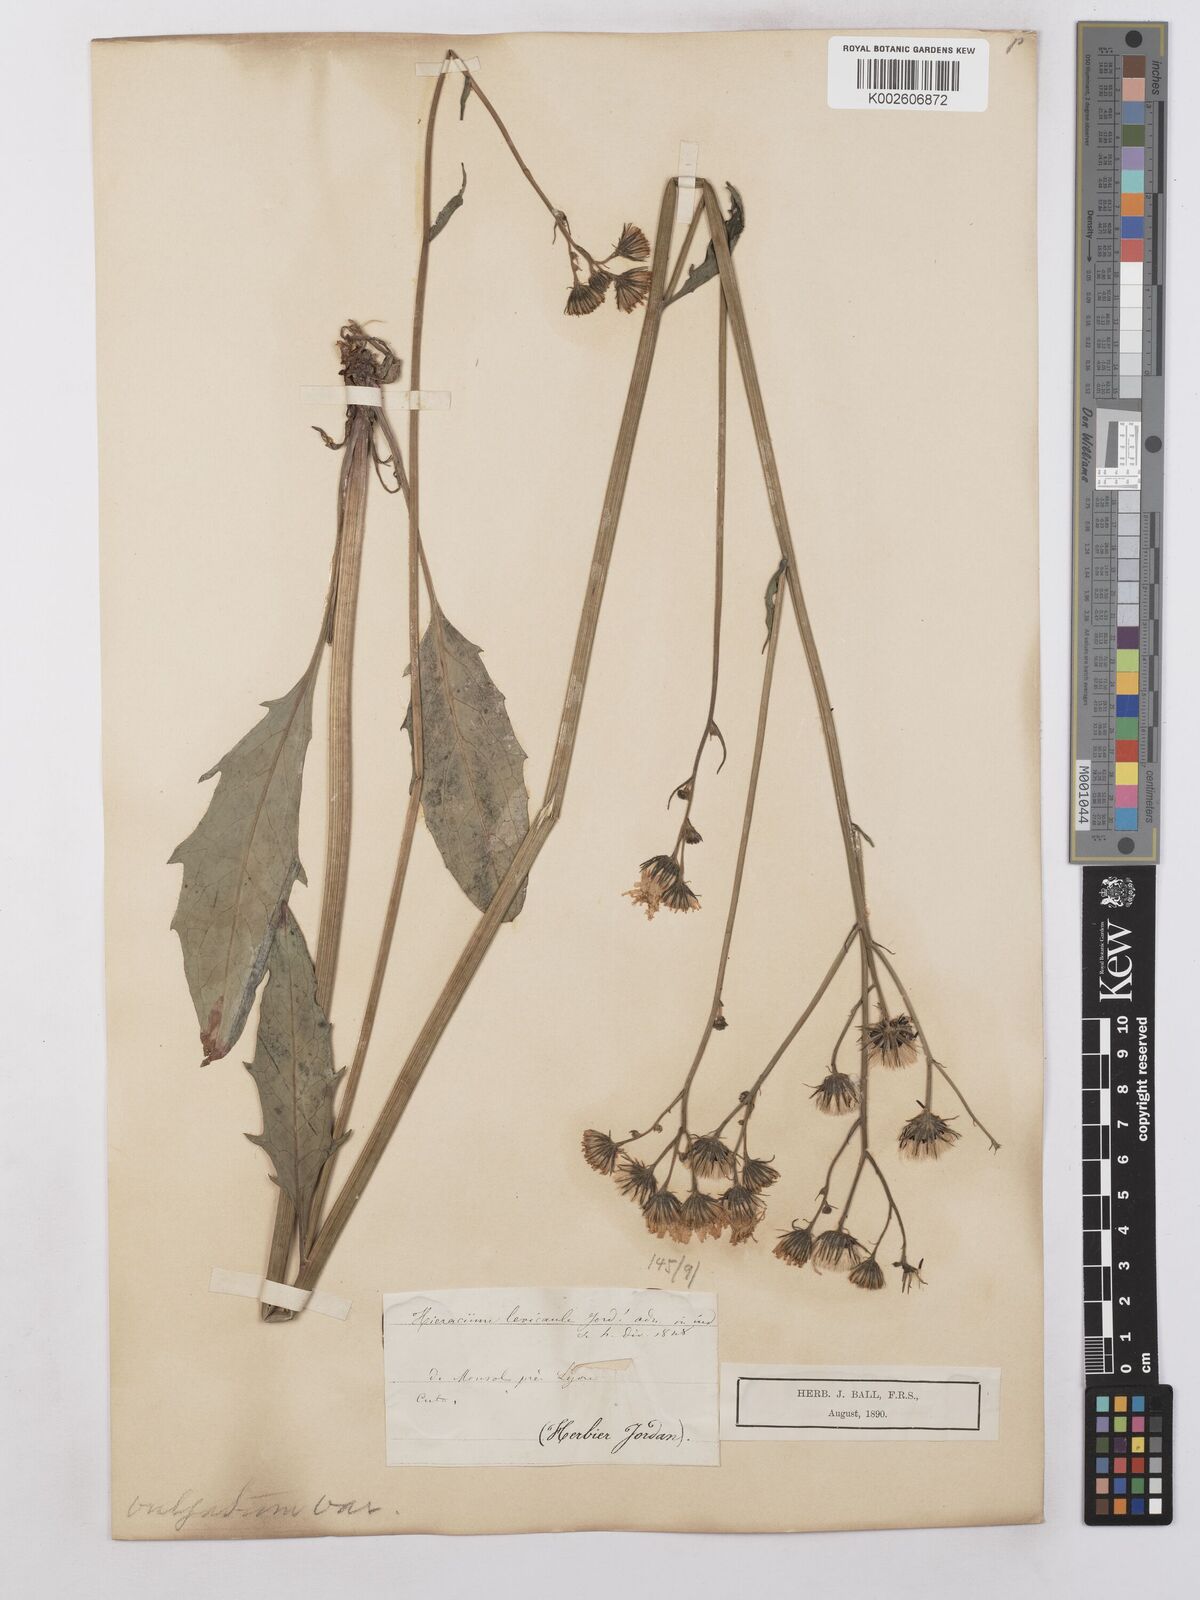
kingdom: Plantae
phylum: Tracheophyta
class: Magnoliopsida
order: Asterales
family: Asteraceae
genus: Hieracium
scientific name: Hieracium levicaule
